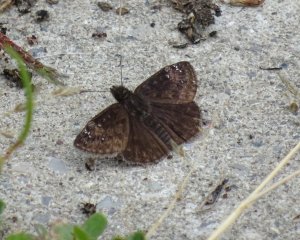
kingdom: Animalia
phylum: Arthropoda
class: Insecta
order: Lepidoptera
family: Hesperiidae
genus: Gesta
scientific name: Gesta
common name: Wild Indigo Duskywing
